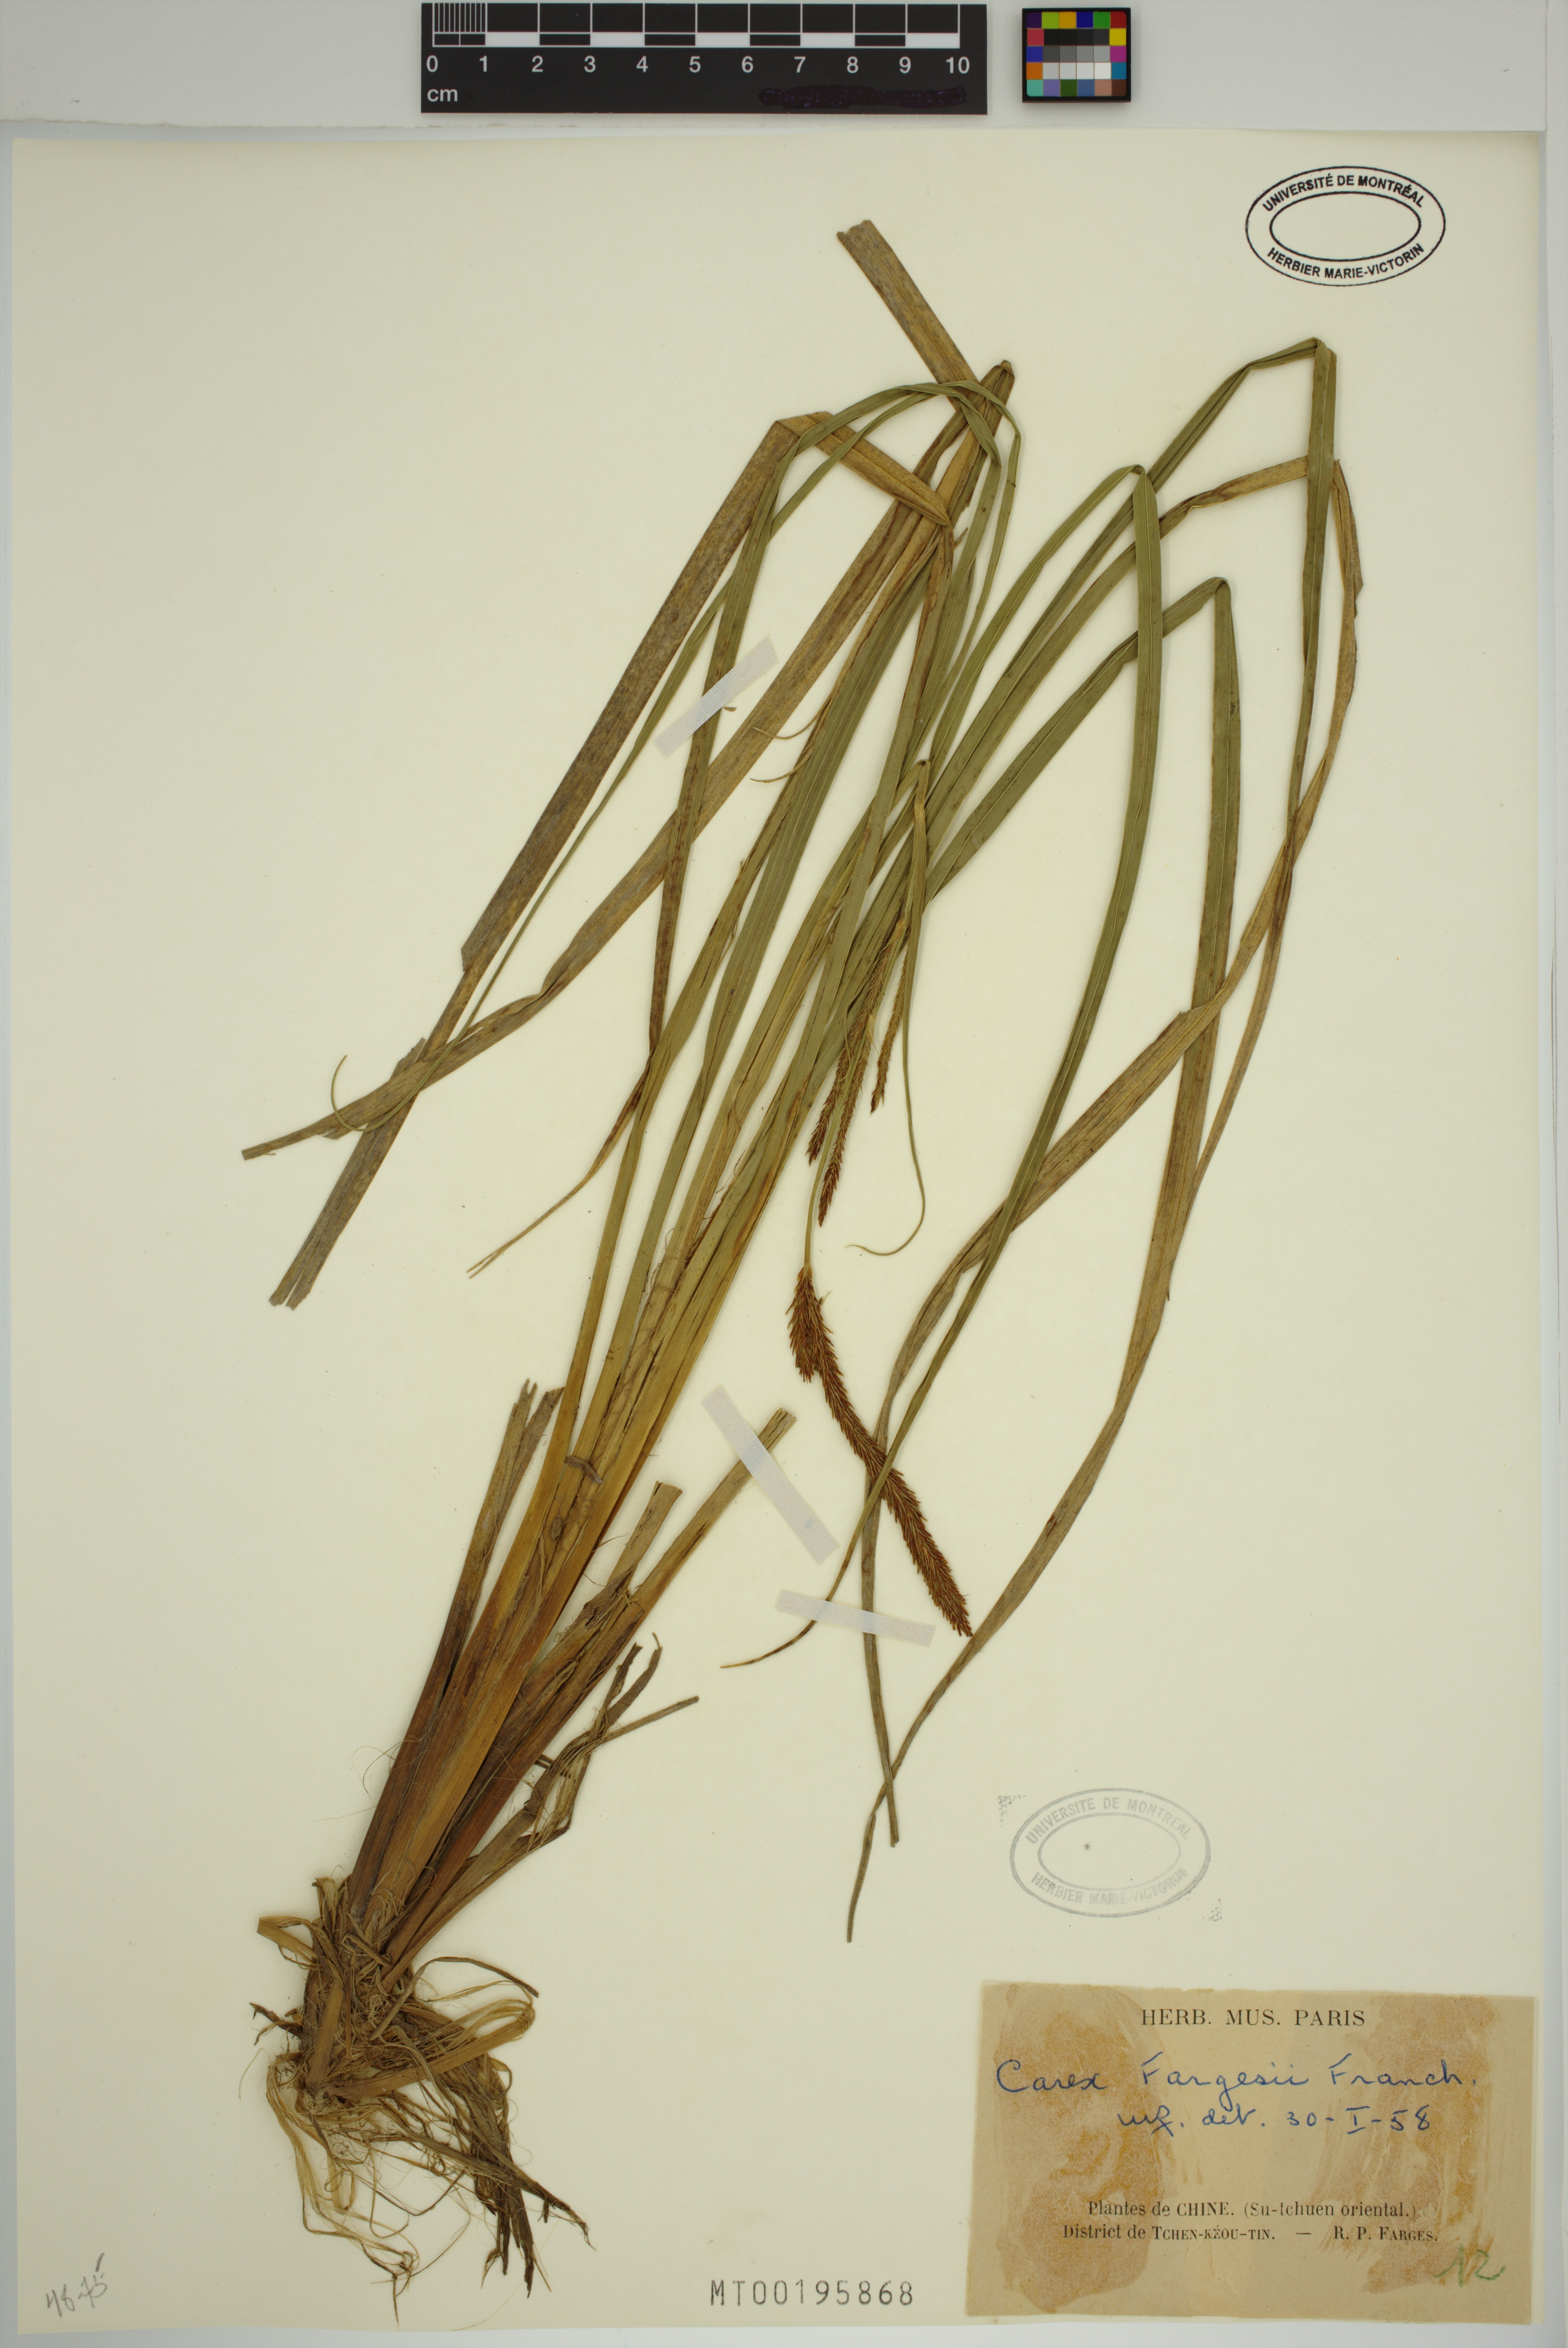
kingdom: Plantae
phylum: Tracheophyta
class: Liliopsida
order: Poales
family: Cyperaceae
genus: Carex
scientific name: Carex fargesii
